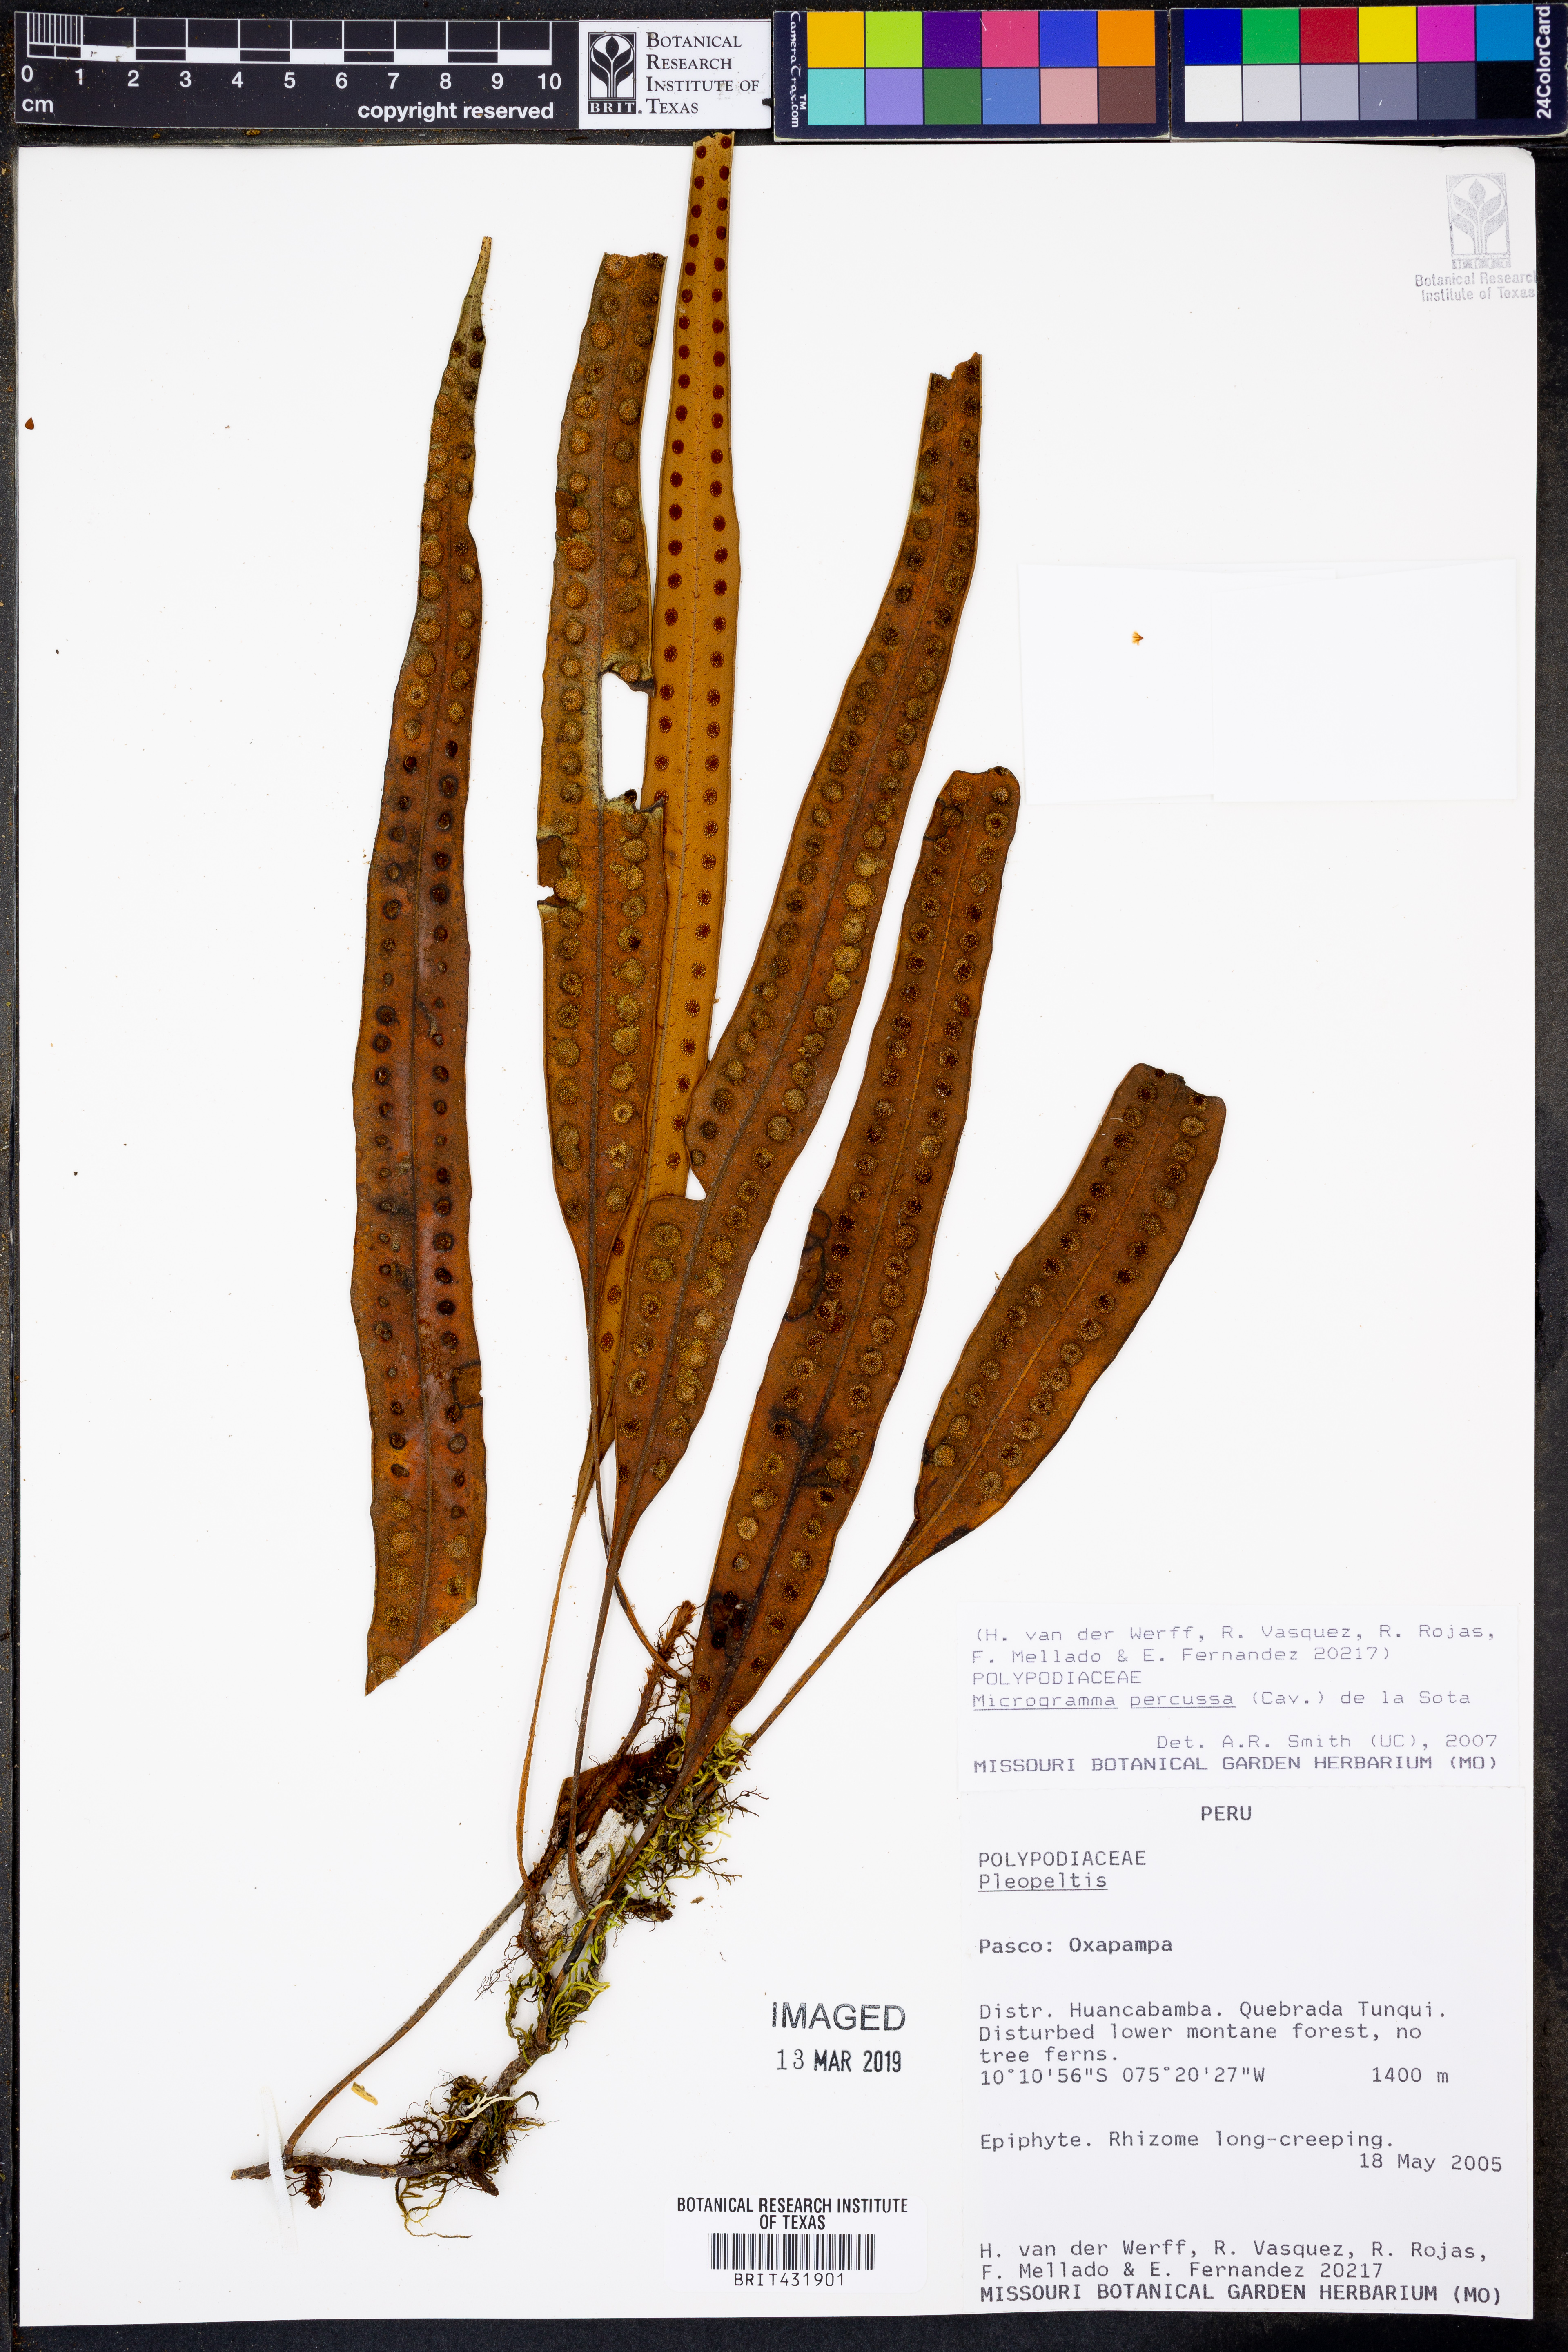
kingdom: Plantae
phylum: Tracheophyta
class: Polypodiopsida
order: Polypodiales
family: Polypodiaceae
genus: Microgramma
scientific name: Microgramma percussa
